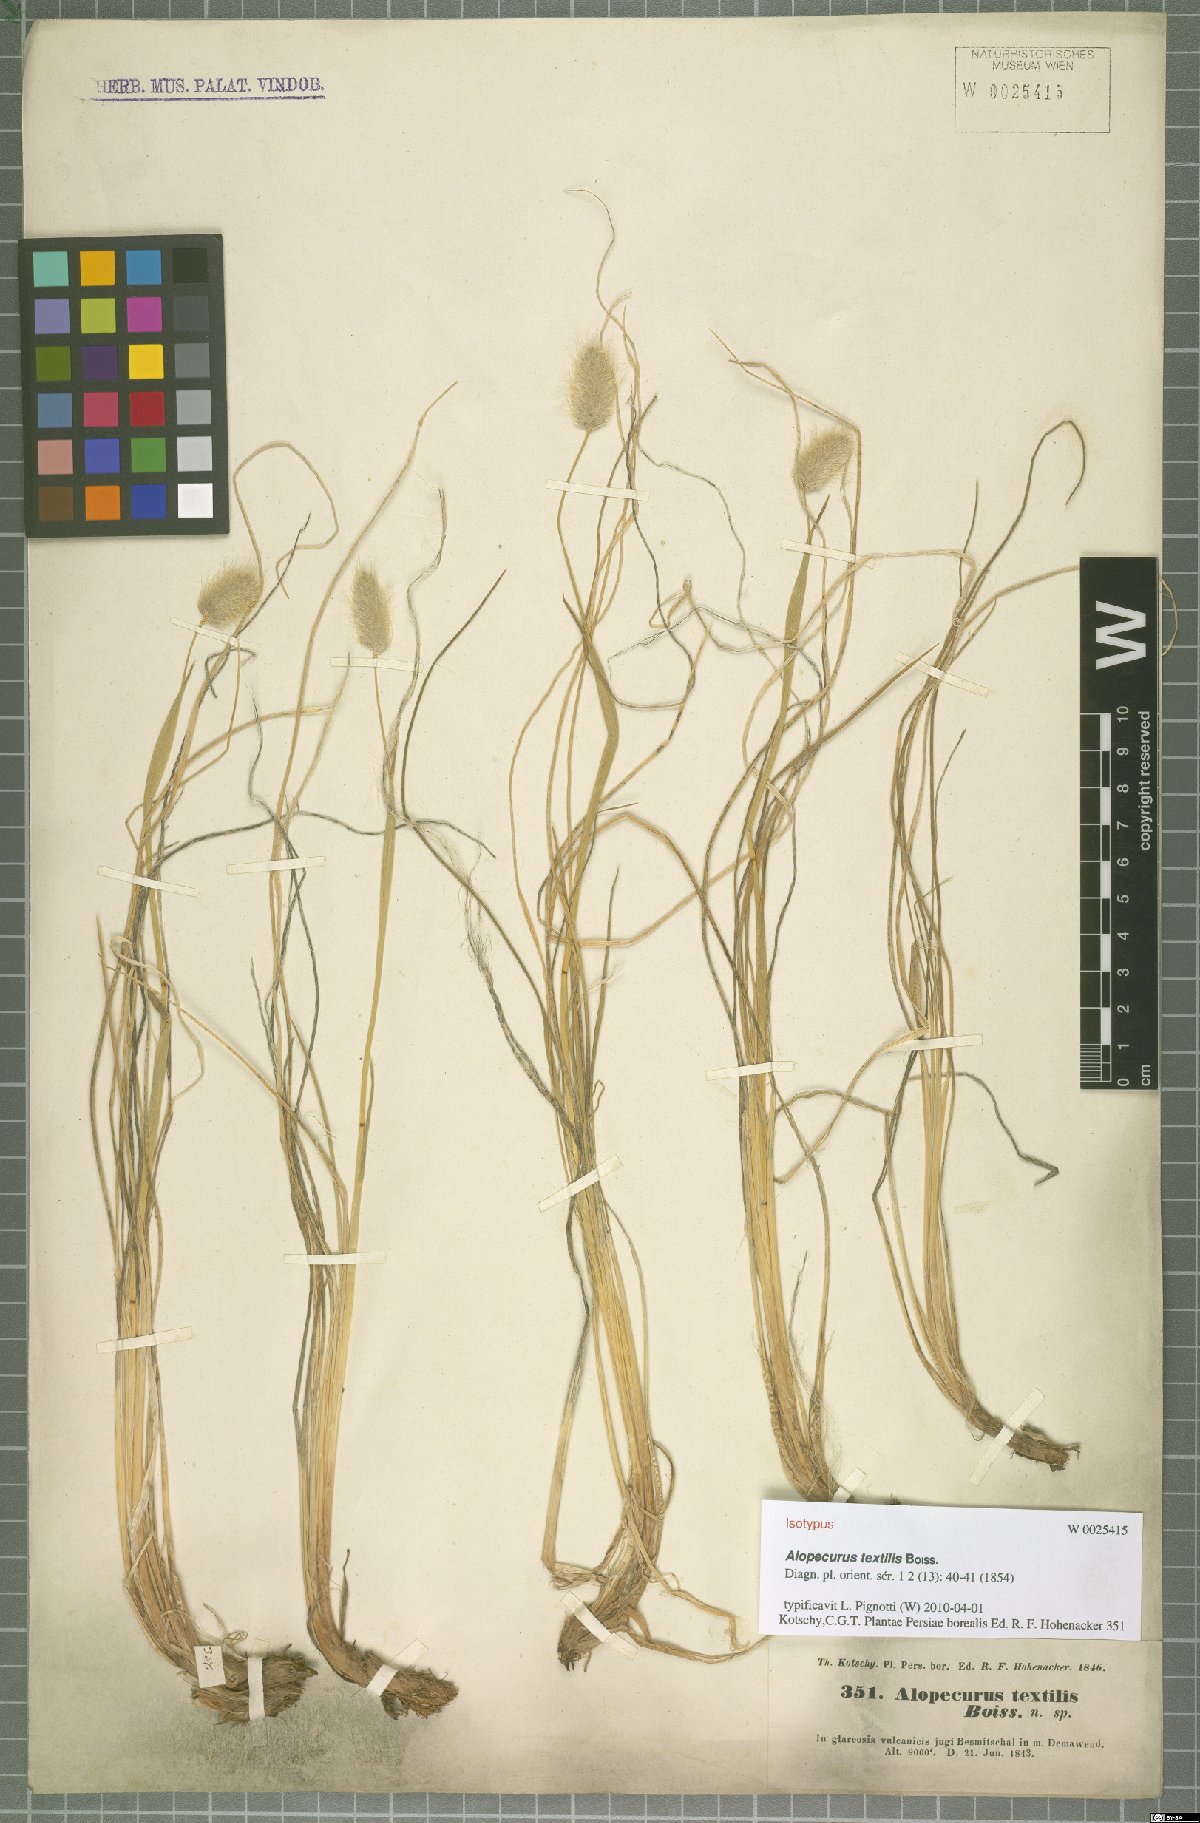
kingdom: Plantae
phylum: Tracheophyta
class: Liliopsida
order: Poales
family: Poaceae
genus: Alopecurus
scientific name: Alopecurus textilis
